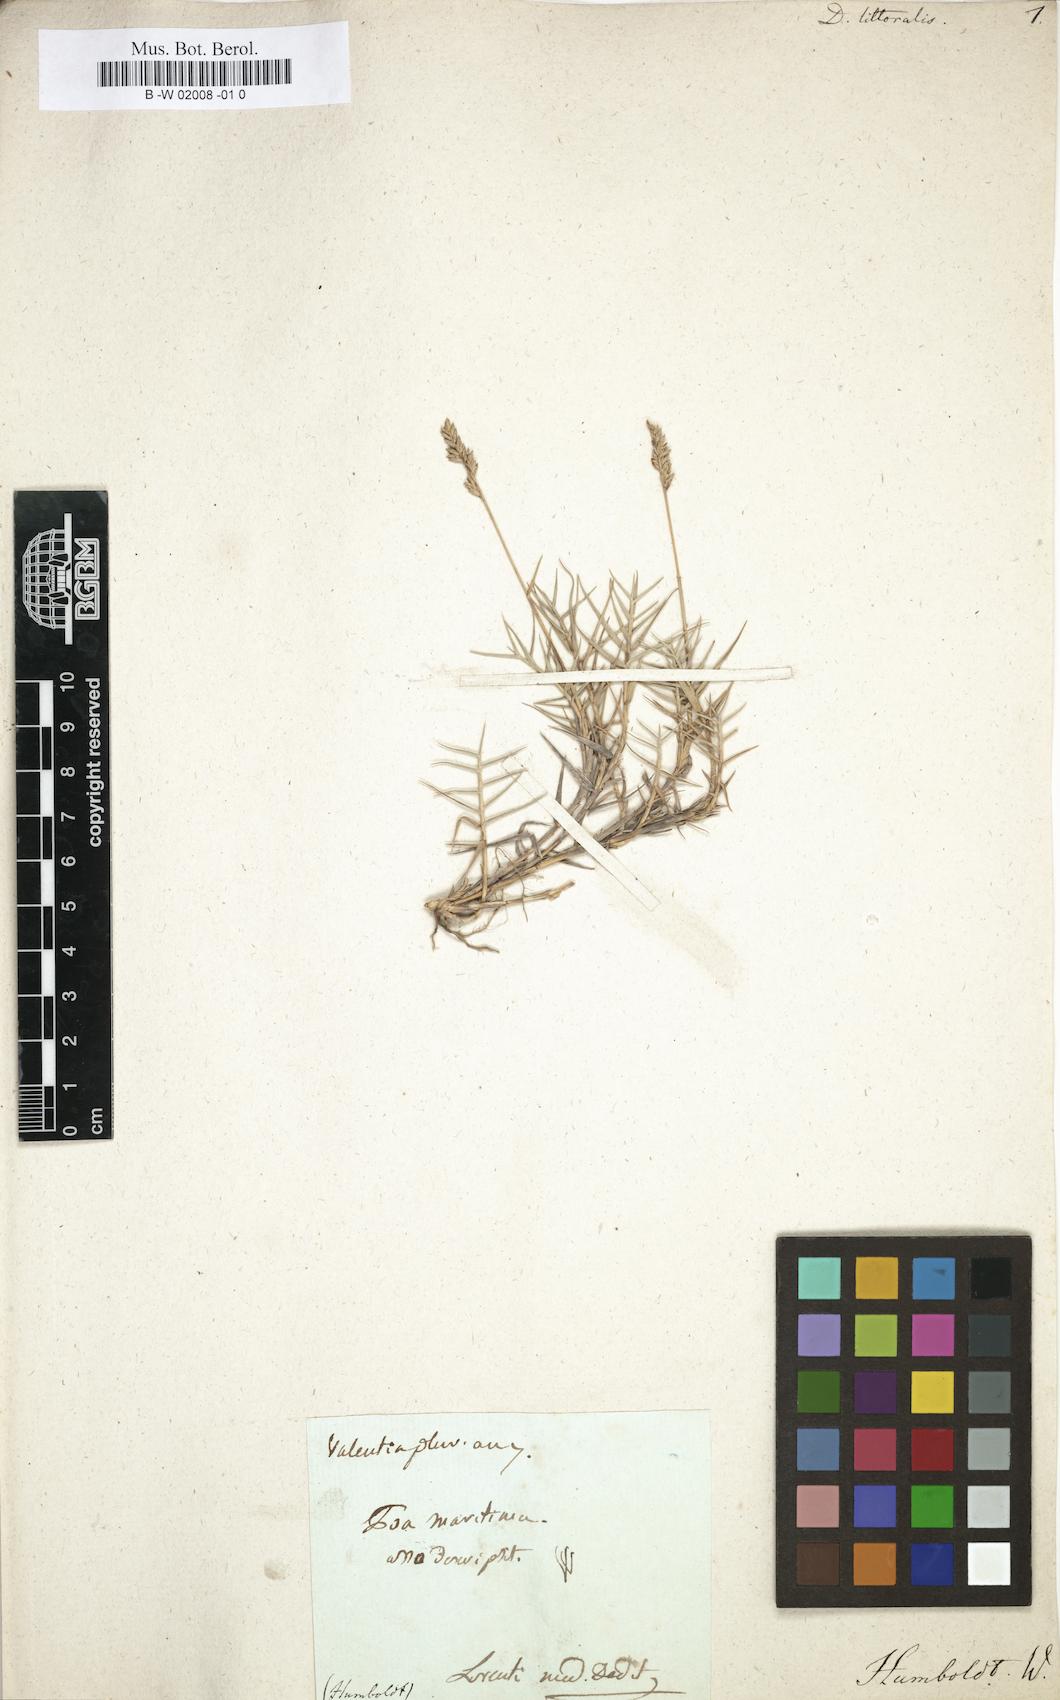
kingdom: Plantae
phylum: Tracheophyta
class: Liliopsida
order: Poales
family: Poaceae
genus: Aeluropus
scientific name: Aeluropus littoralis
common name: Indian walnut
